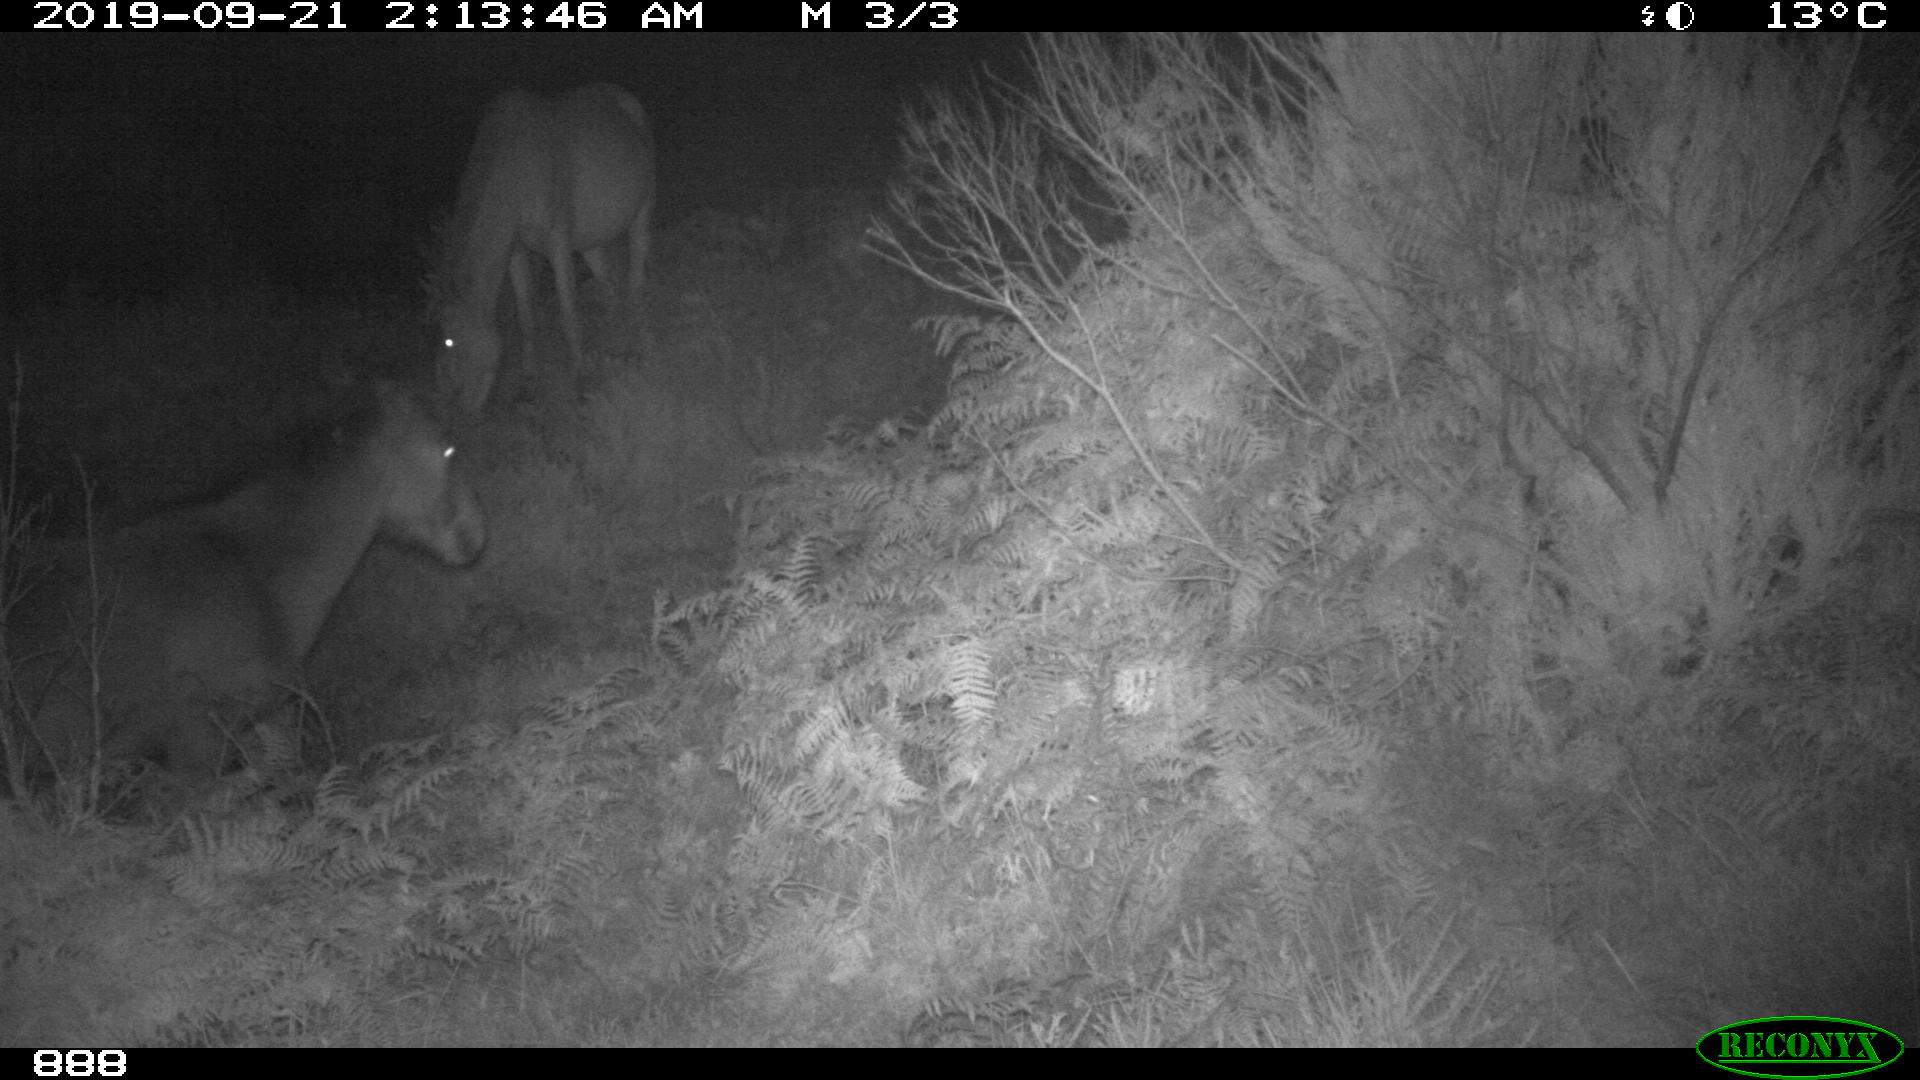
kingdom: Animalia
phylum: Chordata
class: Mammalia
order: Perissodactyla
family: Equidae
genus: Equus
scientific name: Equus caballus
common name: Horse
